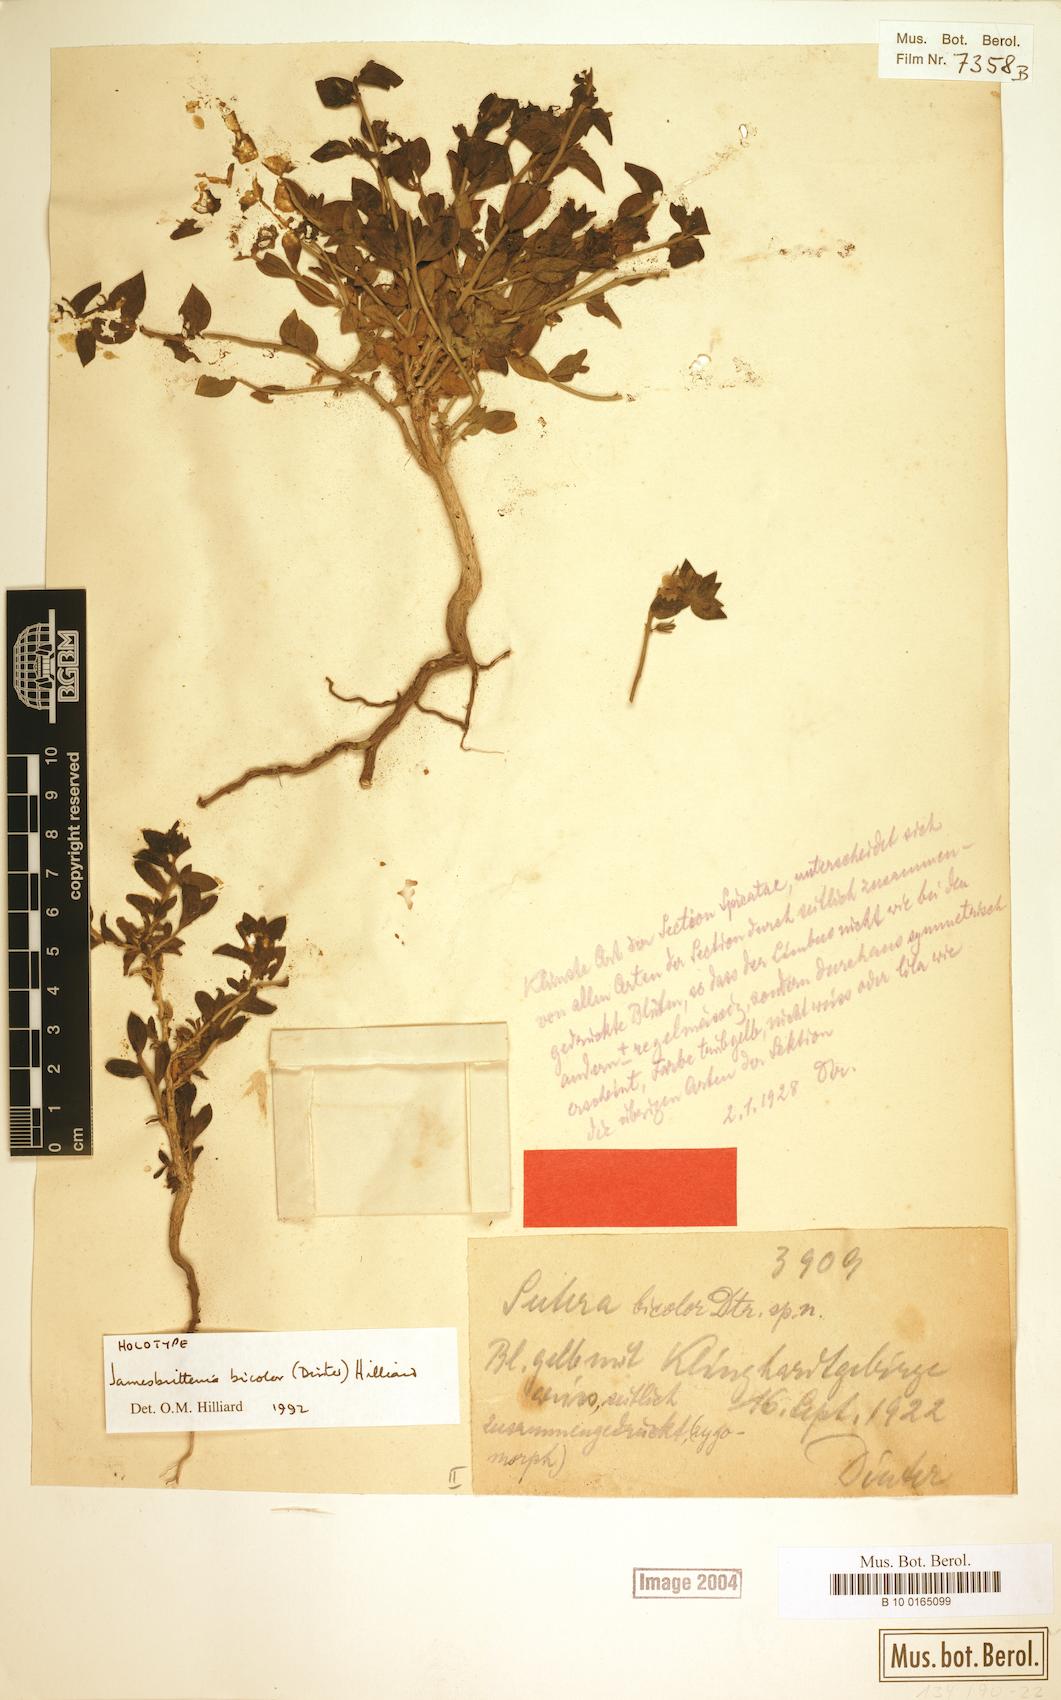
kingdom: Plantae
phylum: Tracheophyta
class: Magnoliopsida
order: Lamiales
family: Scrophulariaceae
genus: Jamesbrittenia
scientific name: Jamesbrittenia bicolor
